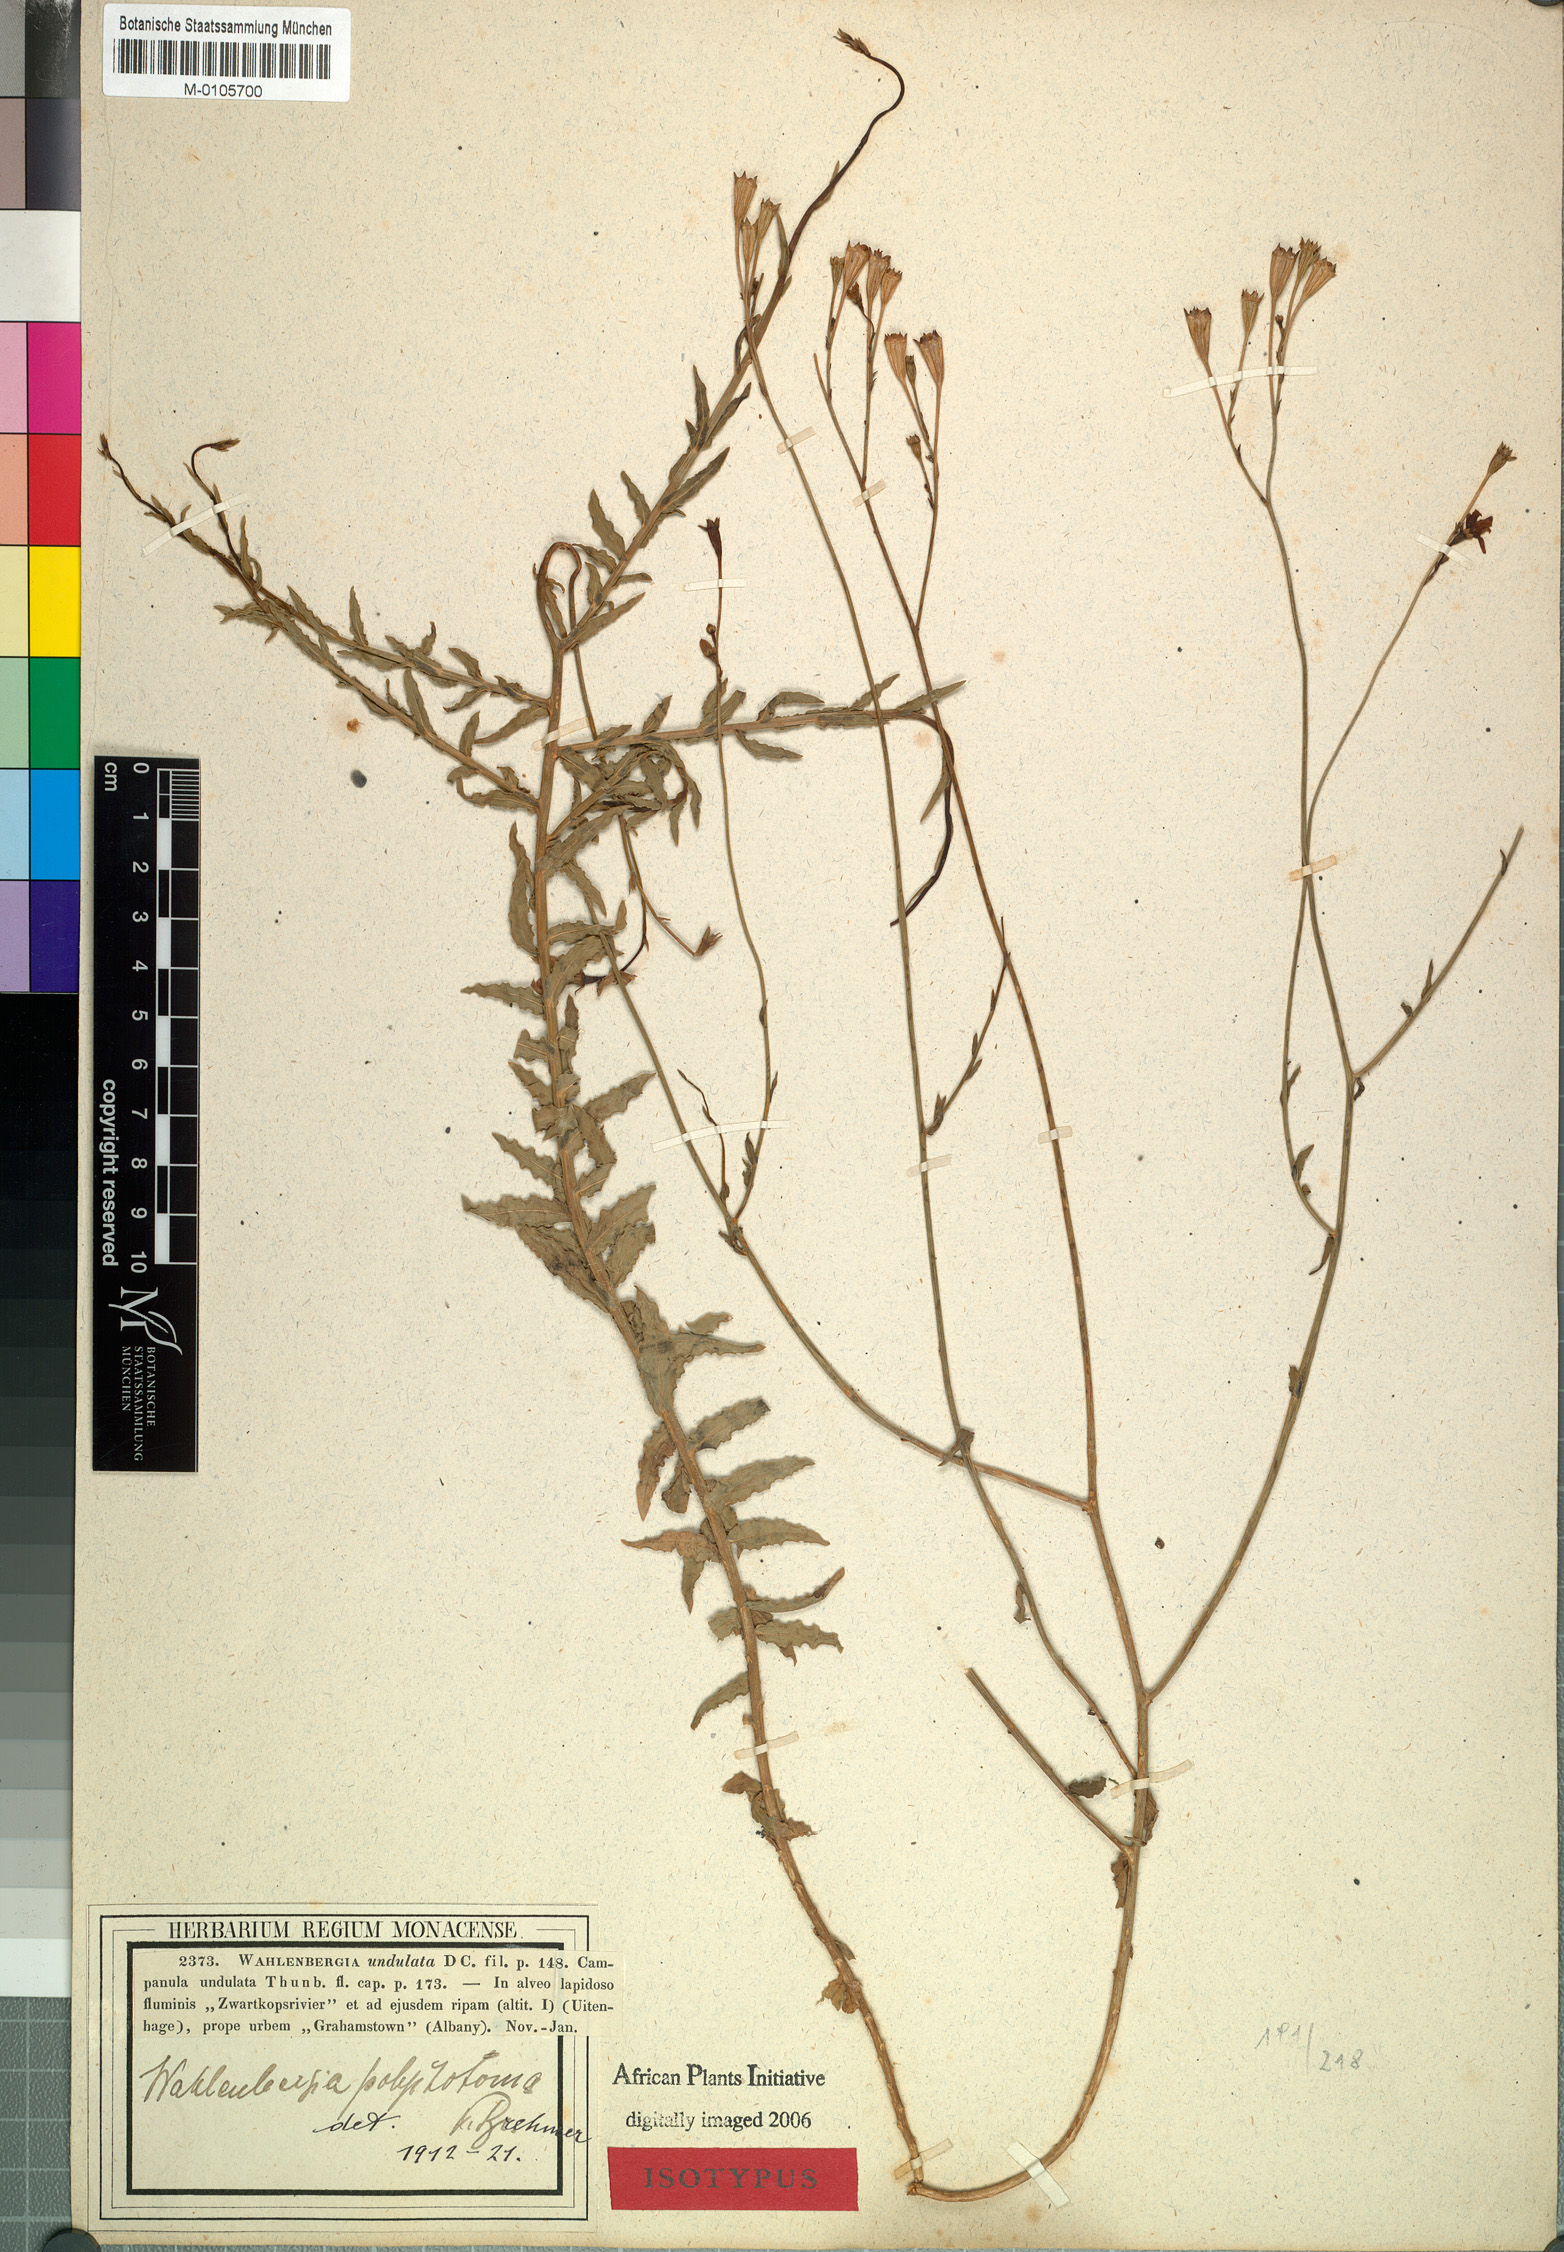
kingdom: Plantae
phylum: Tracheophyta
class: Magnoliopsida
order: Asterales
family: Campanulaceae
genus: Wahlenbergia
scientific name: Wahlenbergia undulata
